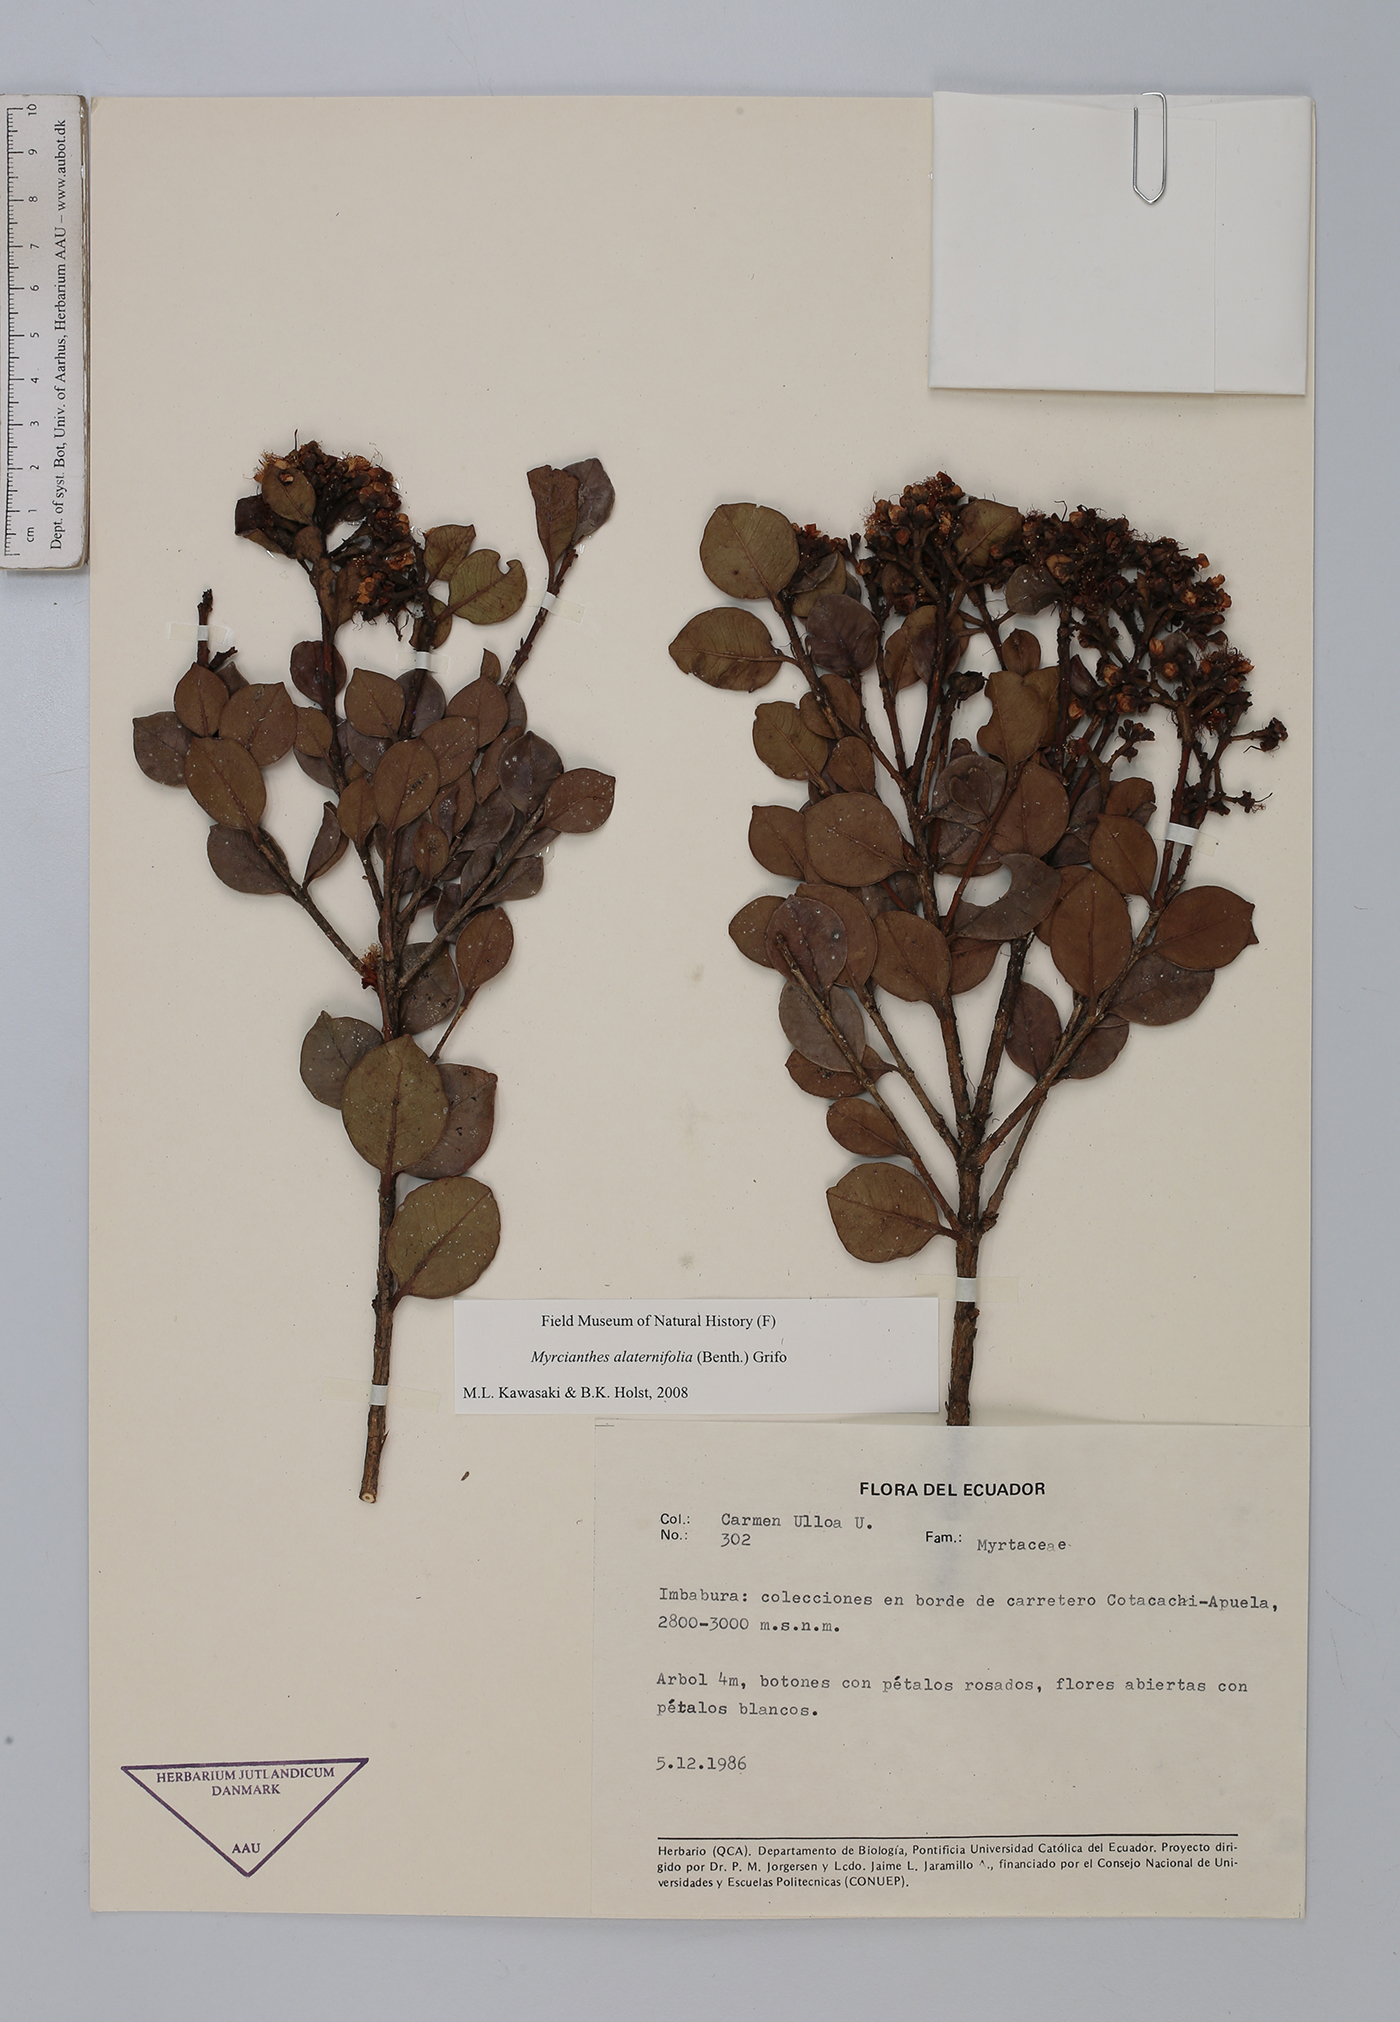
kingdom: Plantae
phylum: Tracheophyta
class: Magnoliopsida
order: Myrtales
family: Myrtaceae
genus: Myrcianthes
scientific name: Myrcianthes alaternifolia
